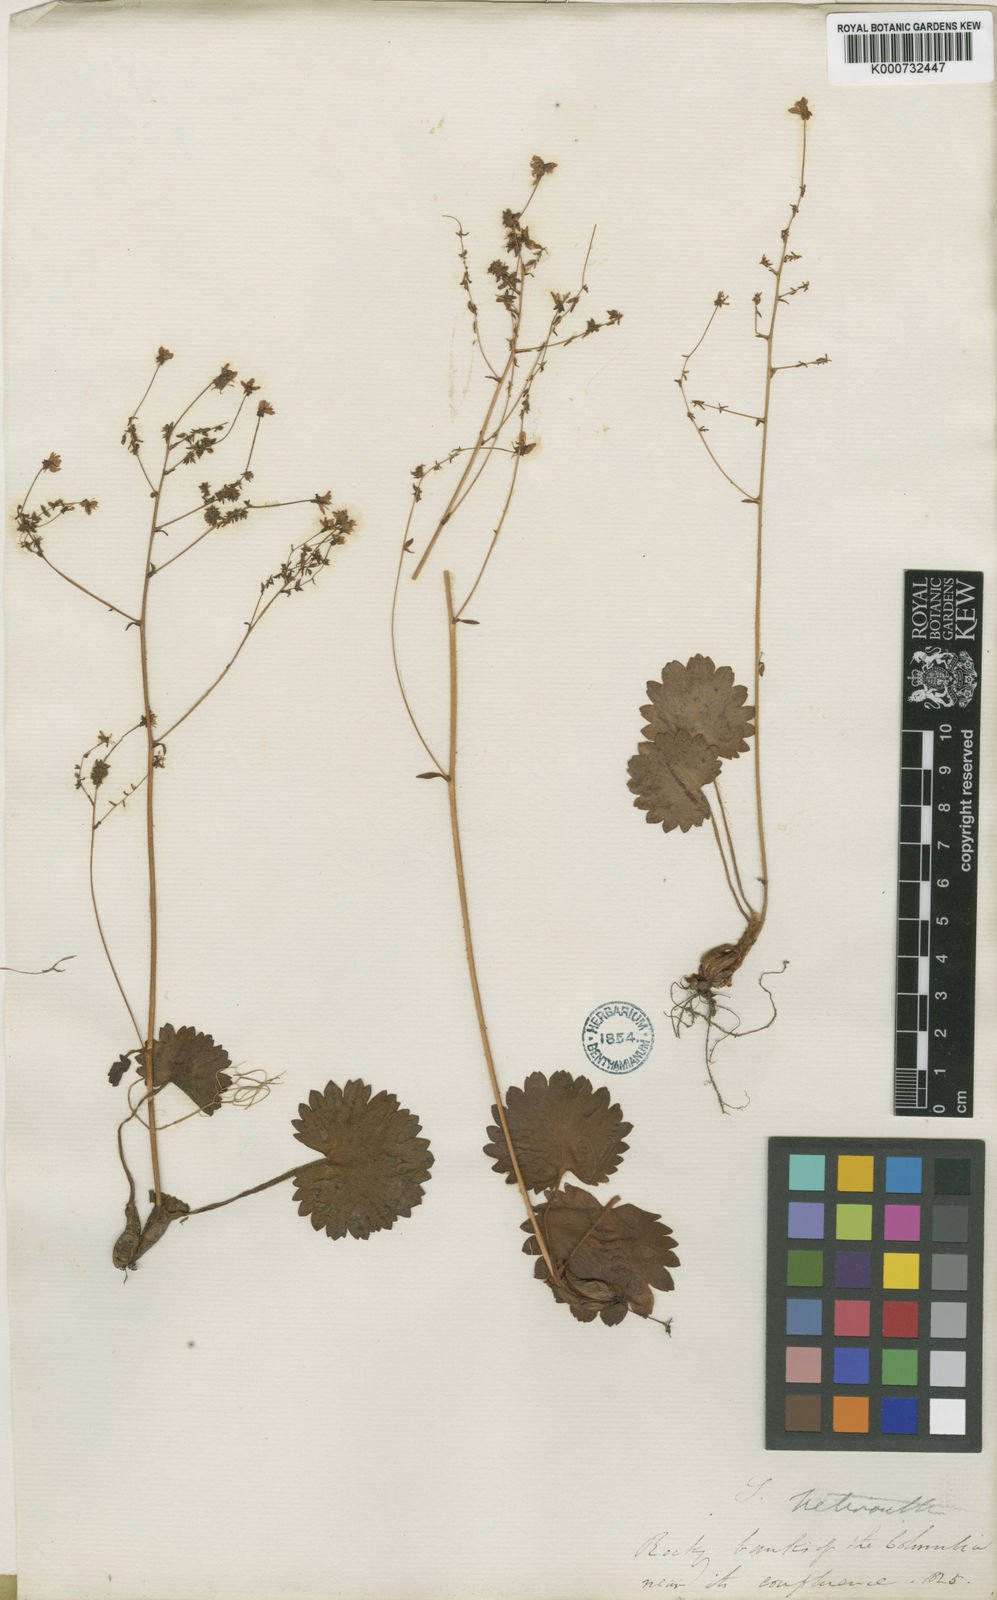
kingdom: Plantae
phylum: Tracheophyta
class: Magnoliopsida
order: Saxifragales
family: Saxifragaceae
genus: Micranthes
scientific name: Micranthes mertensiana
